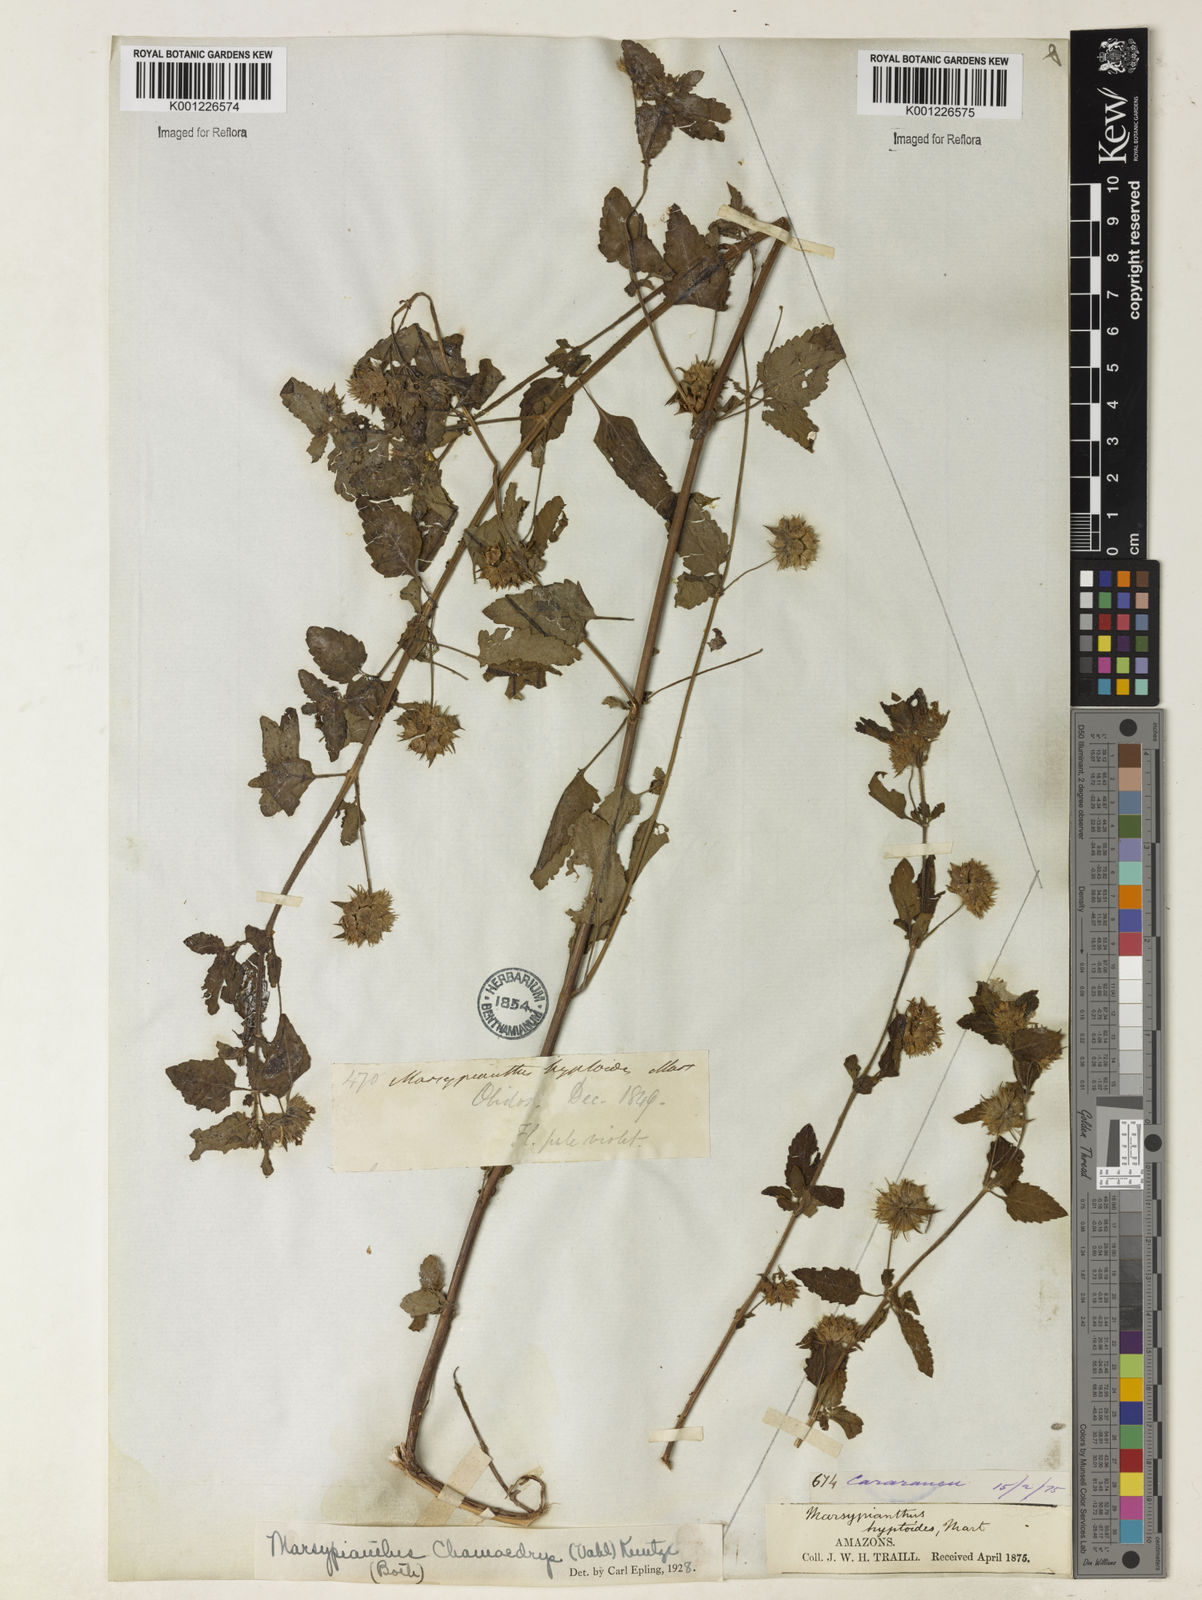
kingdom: Plantae
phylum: Tracheophyta
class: Magnoliopsida
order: Lamiales
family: Lamiaceae
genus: Marsypianthes
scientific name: Marsypianthes chamaedrys
